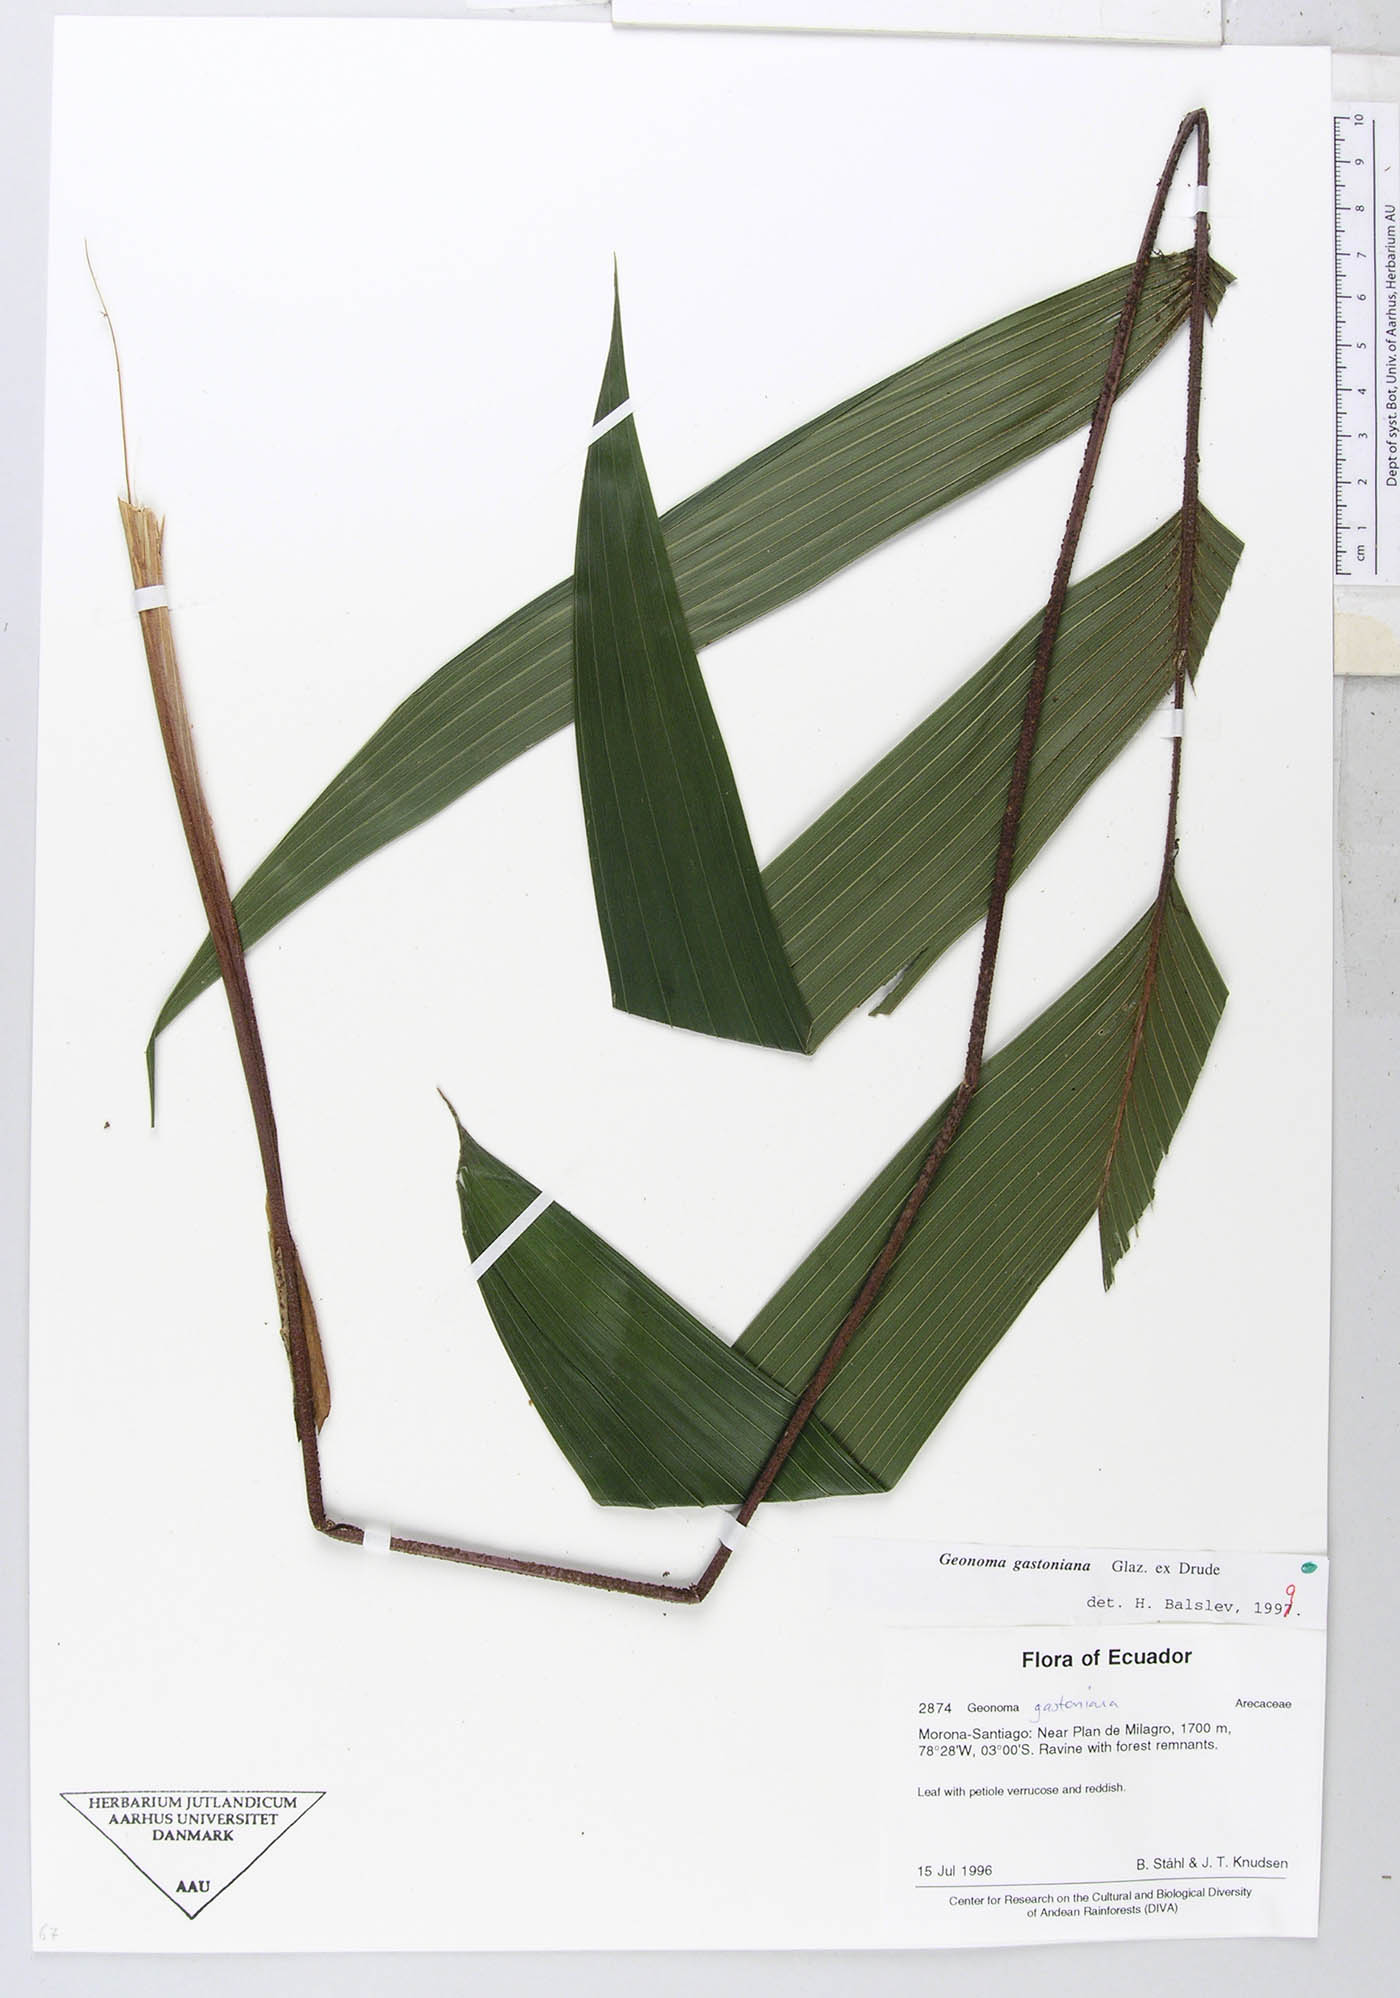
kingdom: Plantae
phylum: Tracheophyta
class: Liliopsida
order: Arecales
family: Arecaceae
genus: Geonoma
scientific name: Geonoma undata
